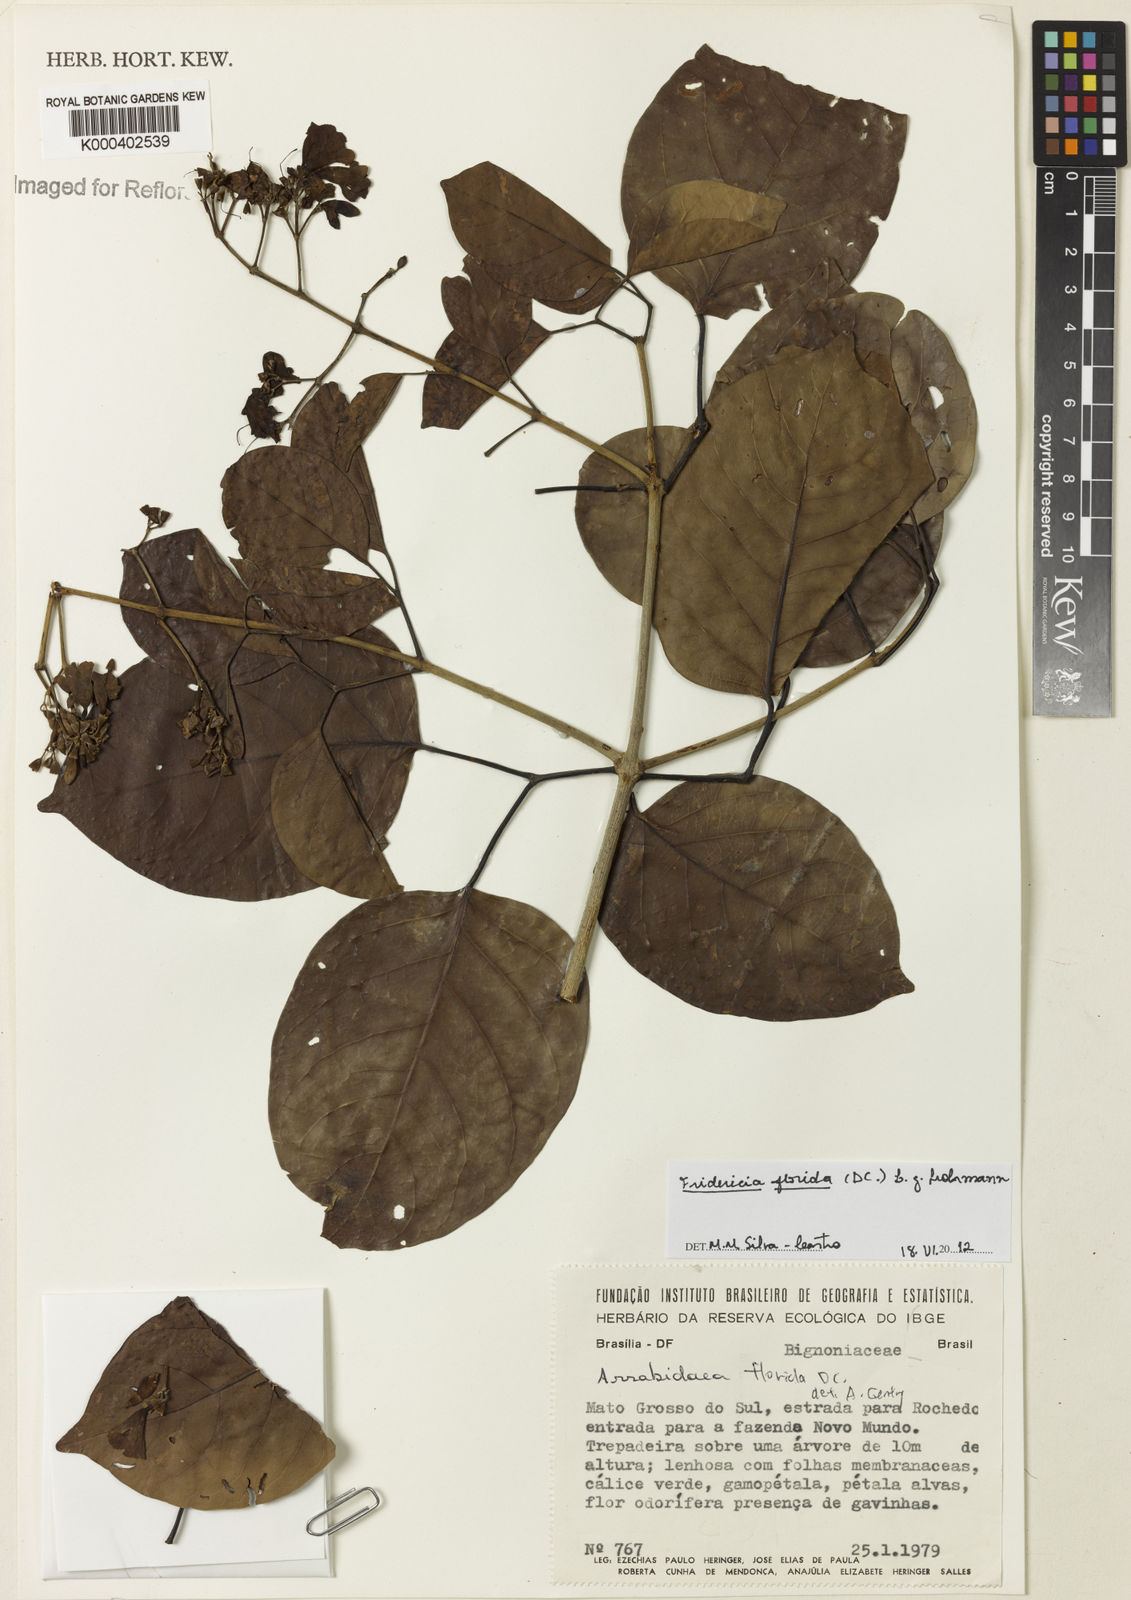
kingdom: Plantae
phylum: Tracheophyta
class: Magnoliopsida
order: Lamiales
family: Bignoniaceae
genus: Fridericia
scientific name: Fridericia florida
